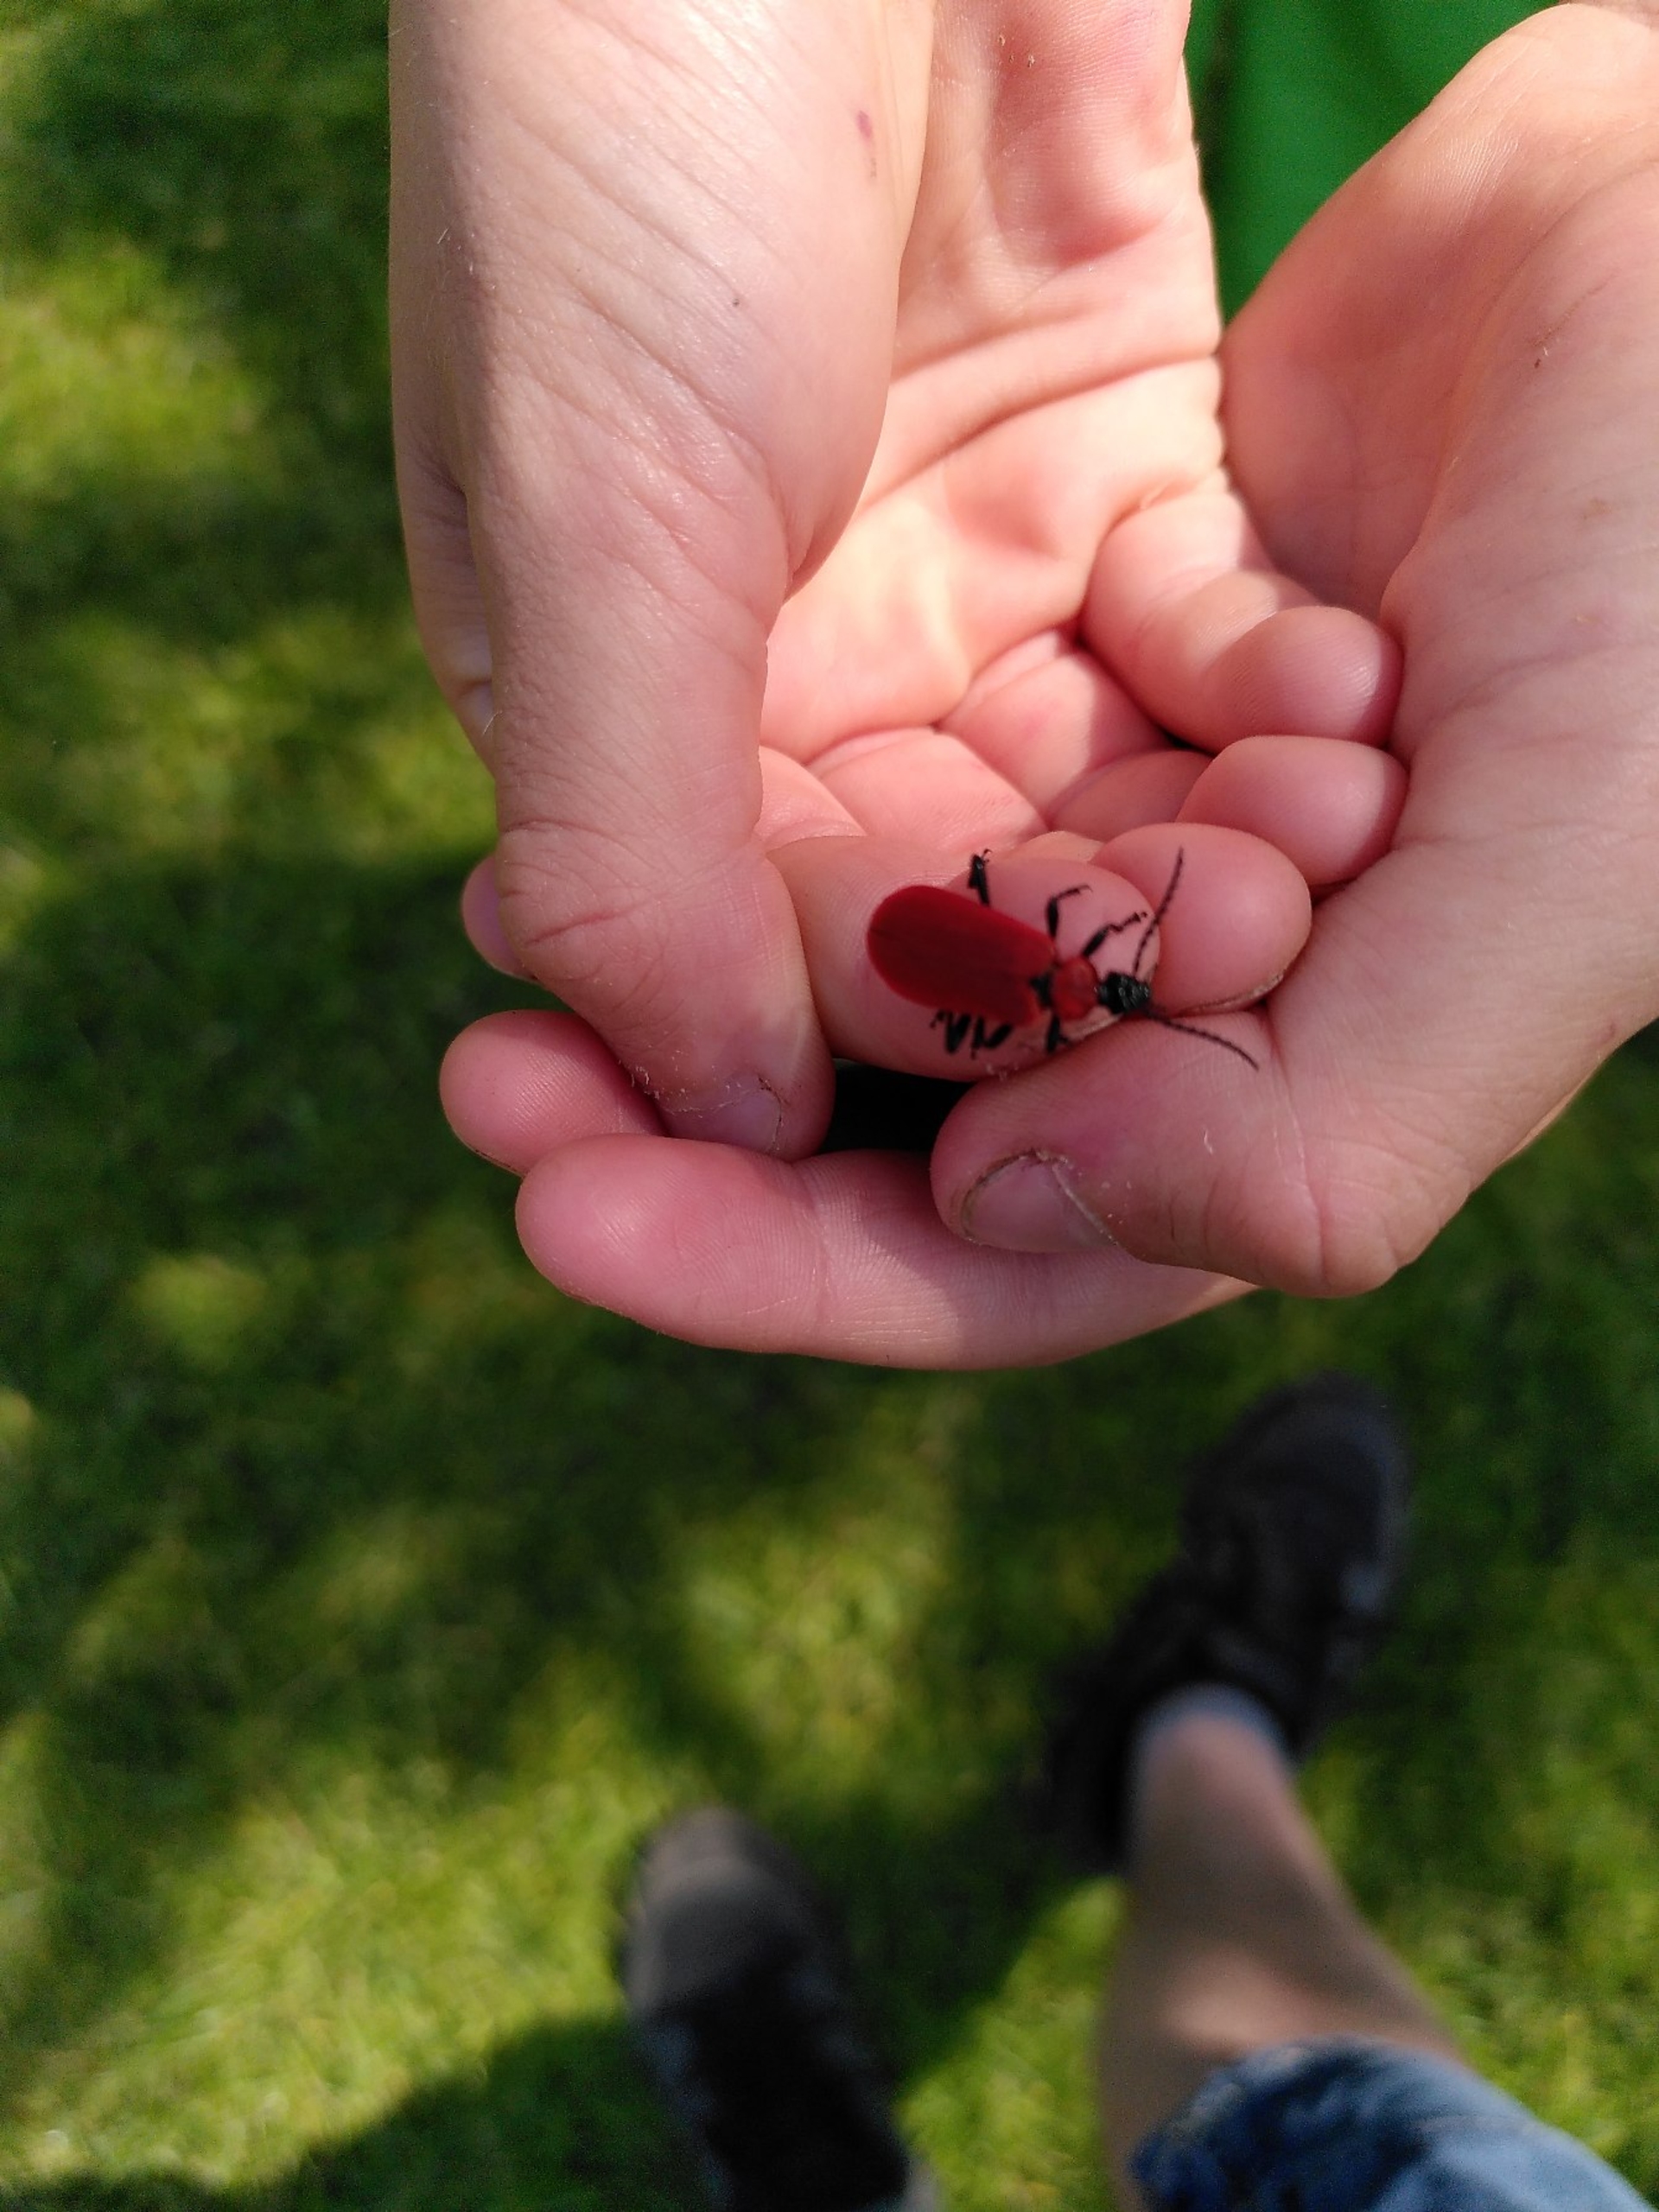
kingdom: Animalia
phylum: Arthropoda
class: Insecta
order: Coleoptera
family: Pyrochroidae
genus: Pyrochroa
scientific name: Pyrochroa coccinea
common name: Sorthovedet kardinalbille
